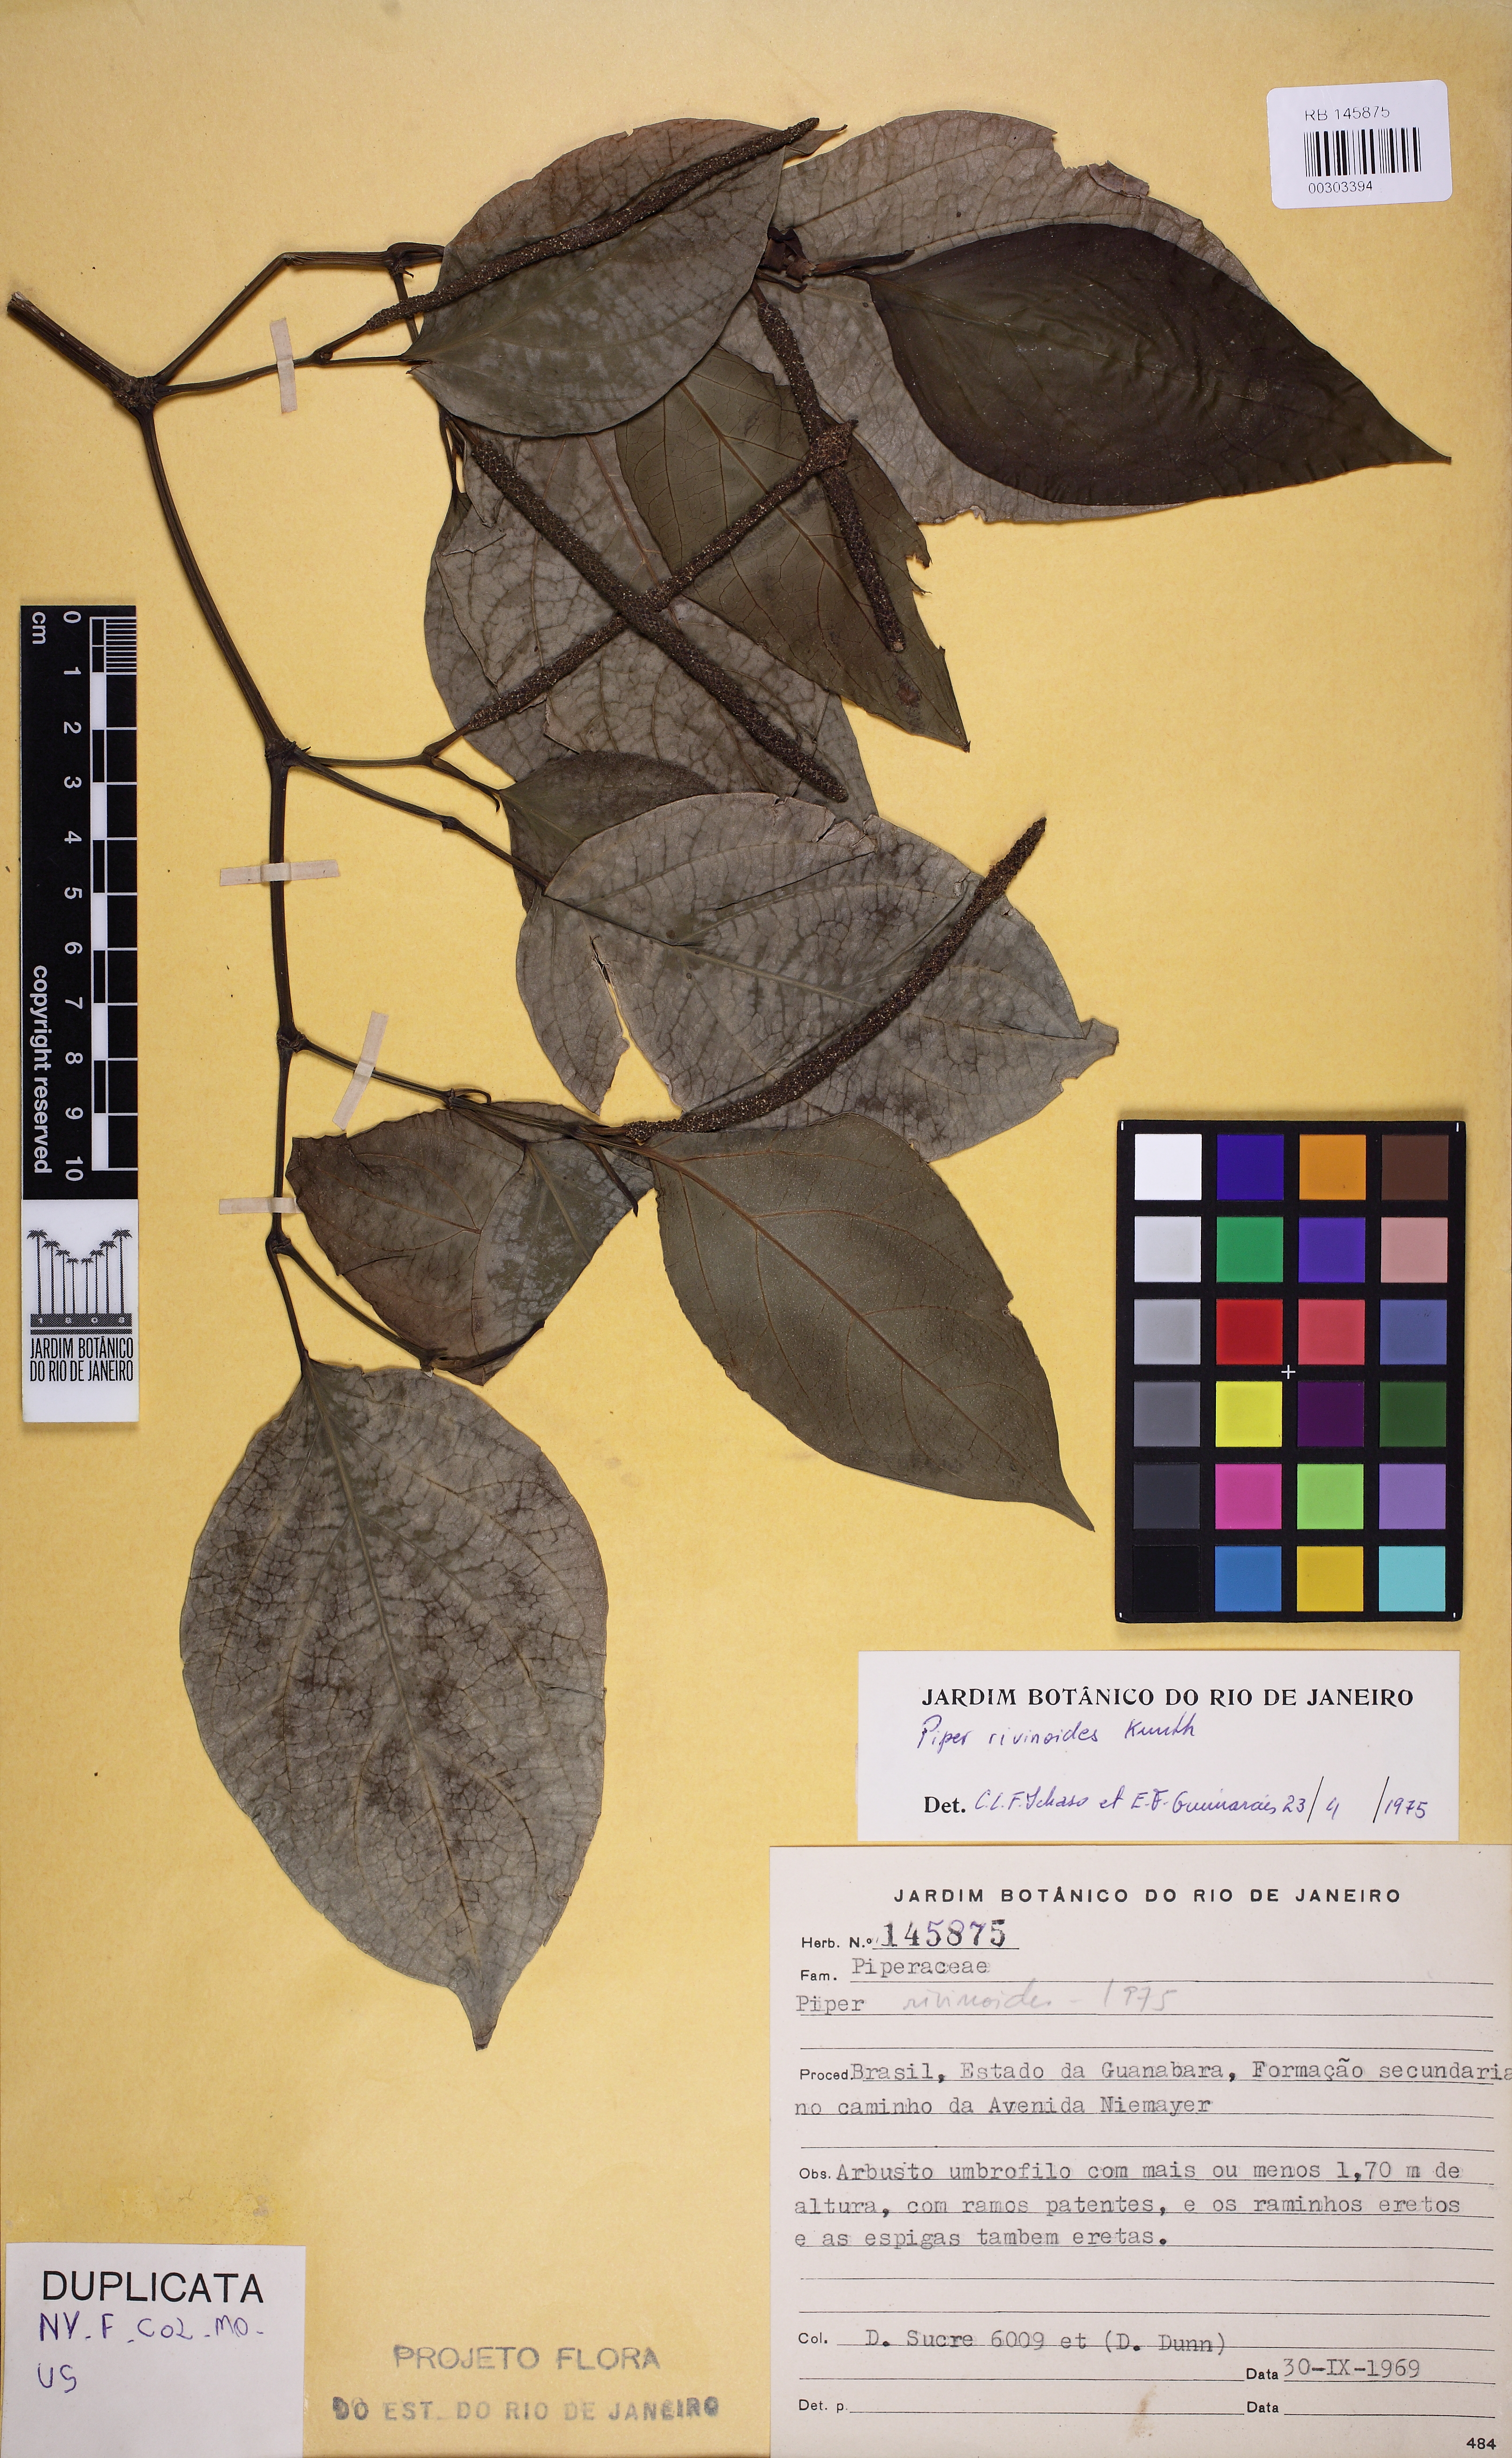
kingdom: Plantae
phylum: Tracheophyta
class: Magnoliopsida
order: Piperales
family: Piperaceae
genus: Piper
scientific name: Piper rivinoides
